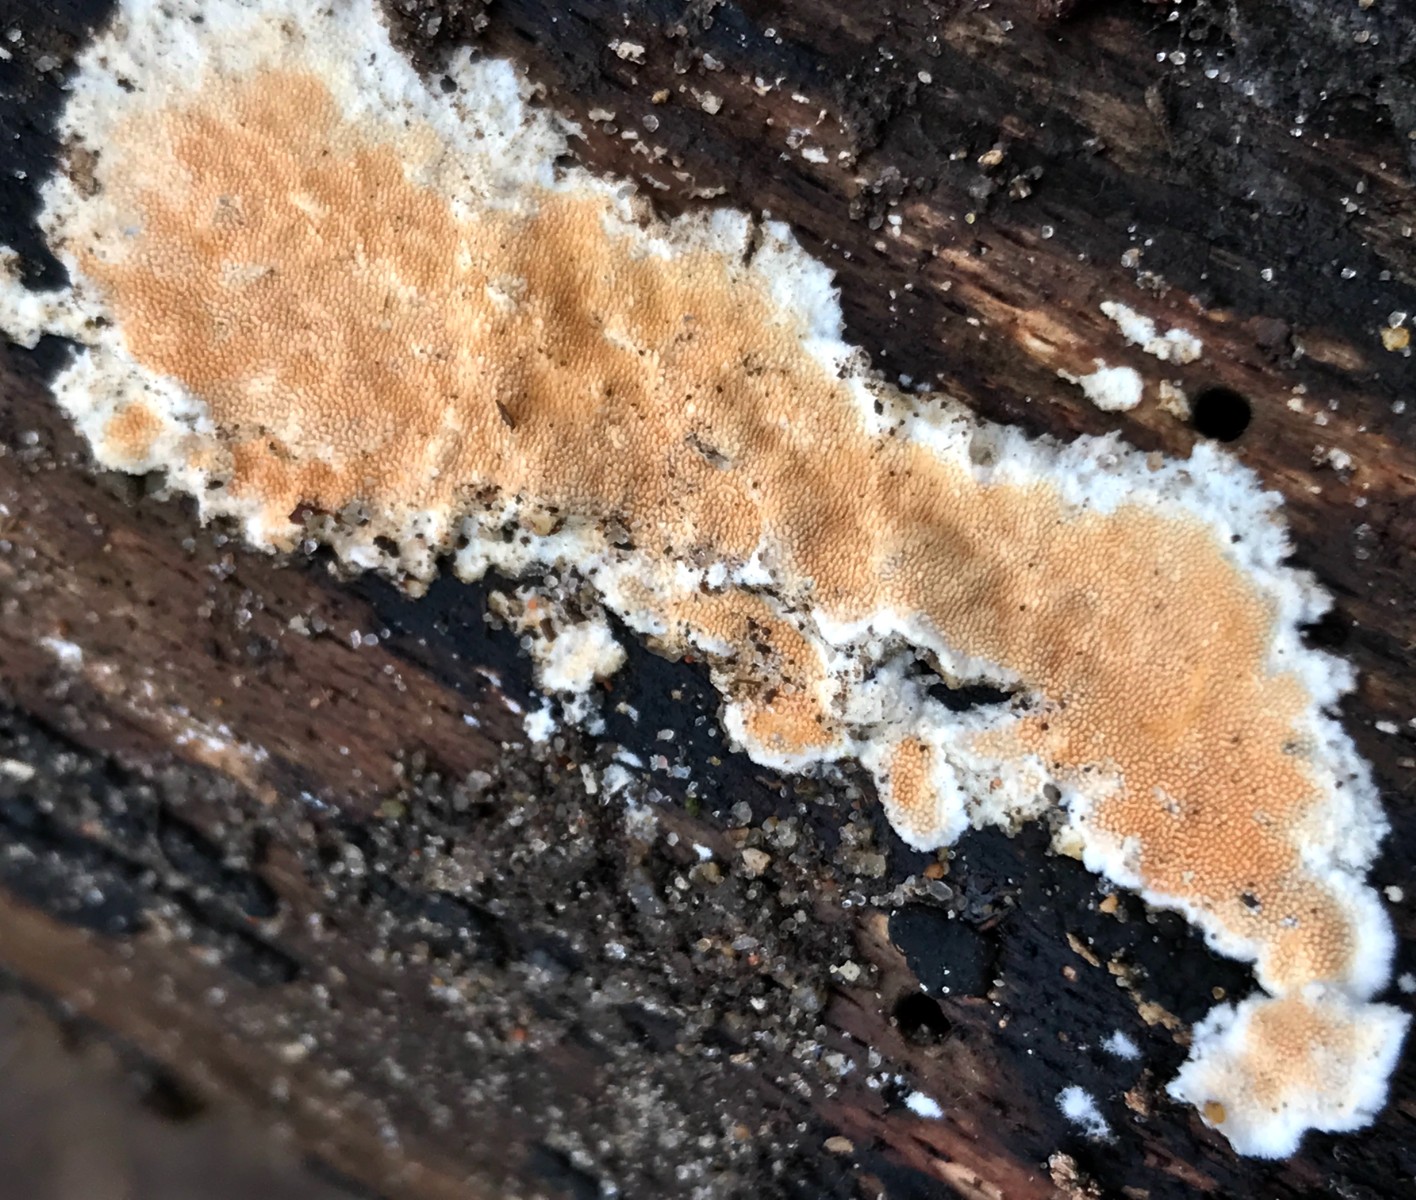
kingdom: Fungi
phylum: Basidiomycota
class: Agaricomycetes
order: Polyporales
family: Steccherinaceae
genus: Steccherinum
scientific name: Steccherinum ochraceum
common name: almindelig skønpig
